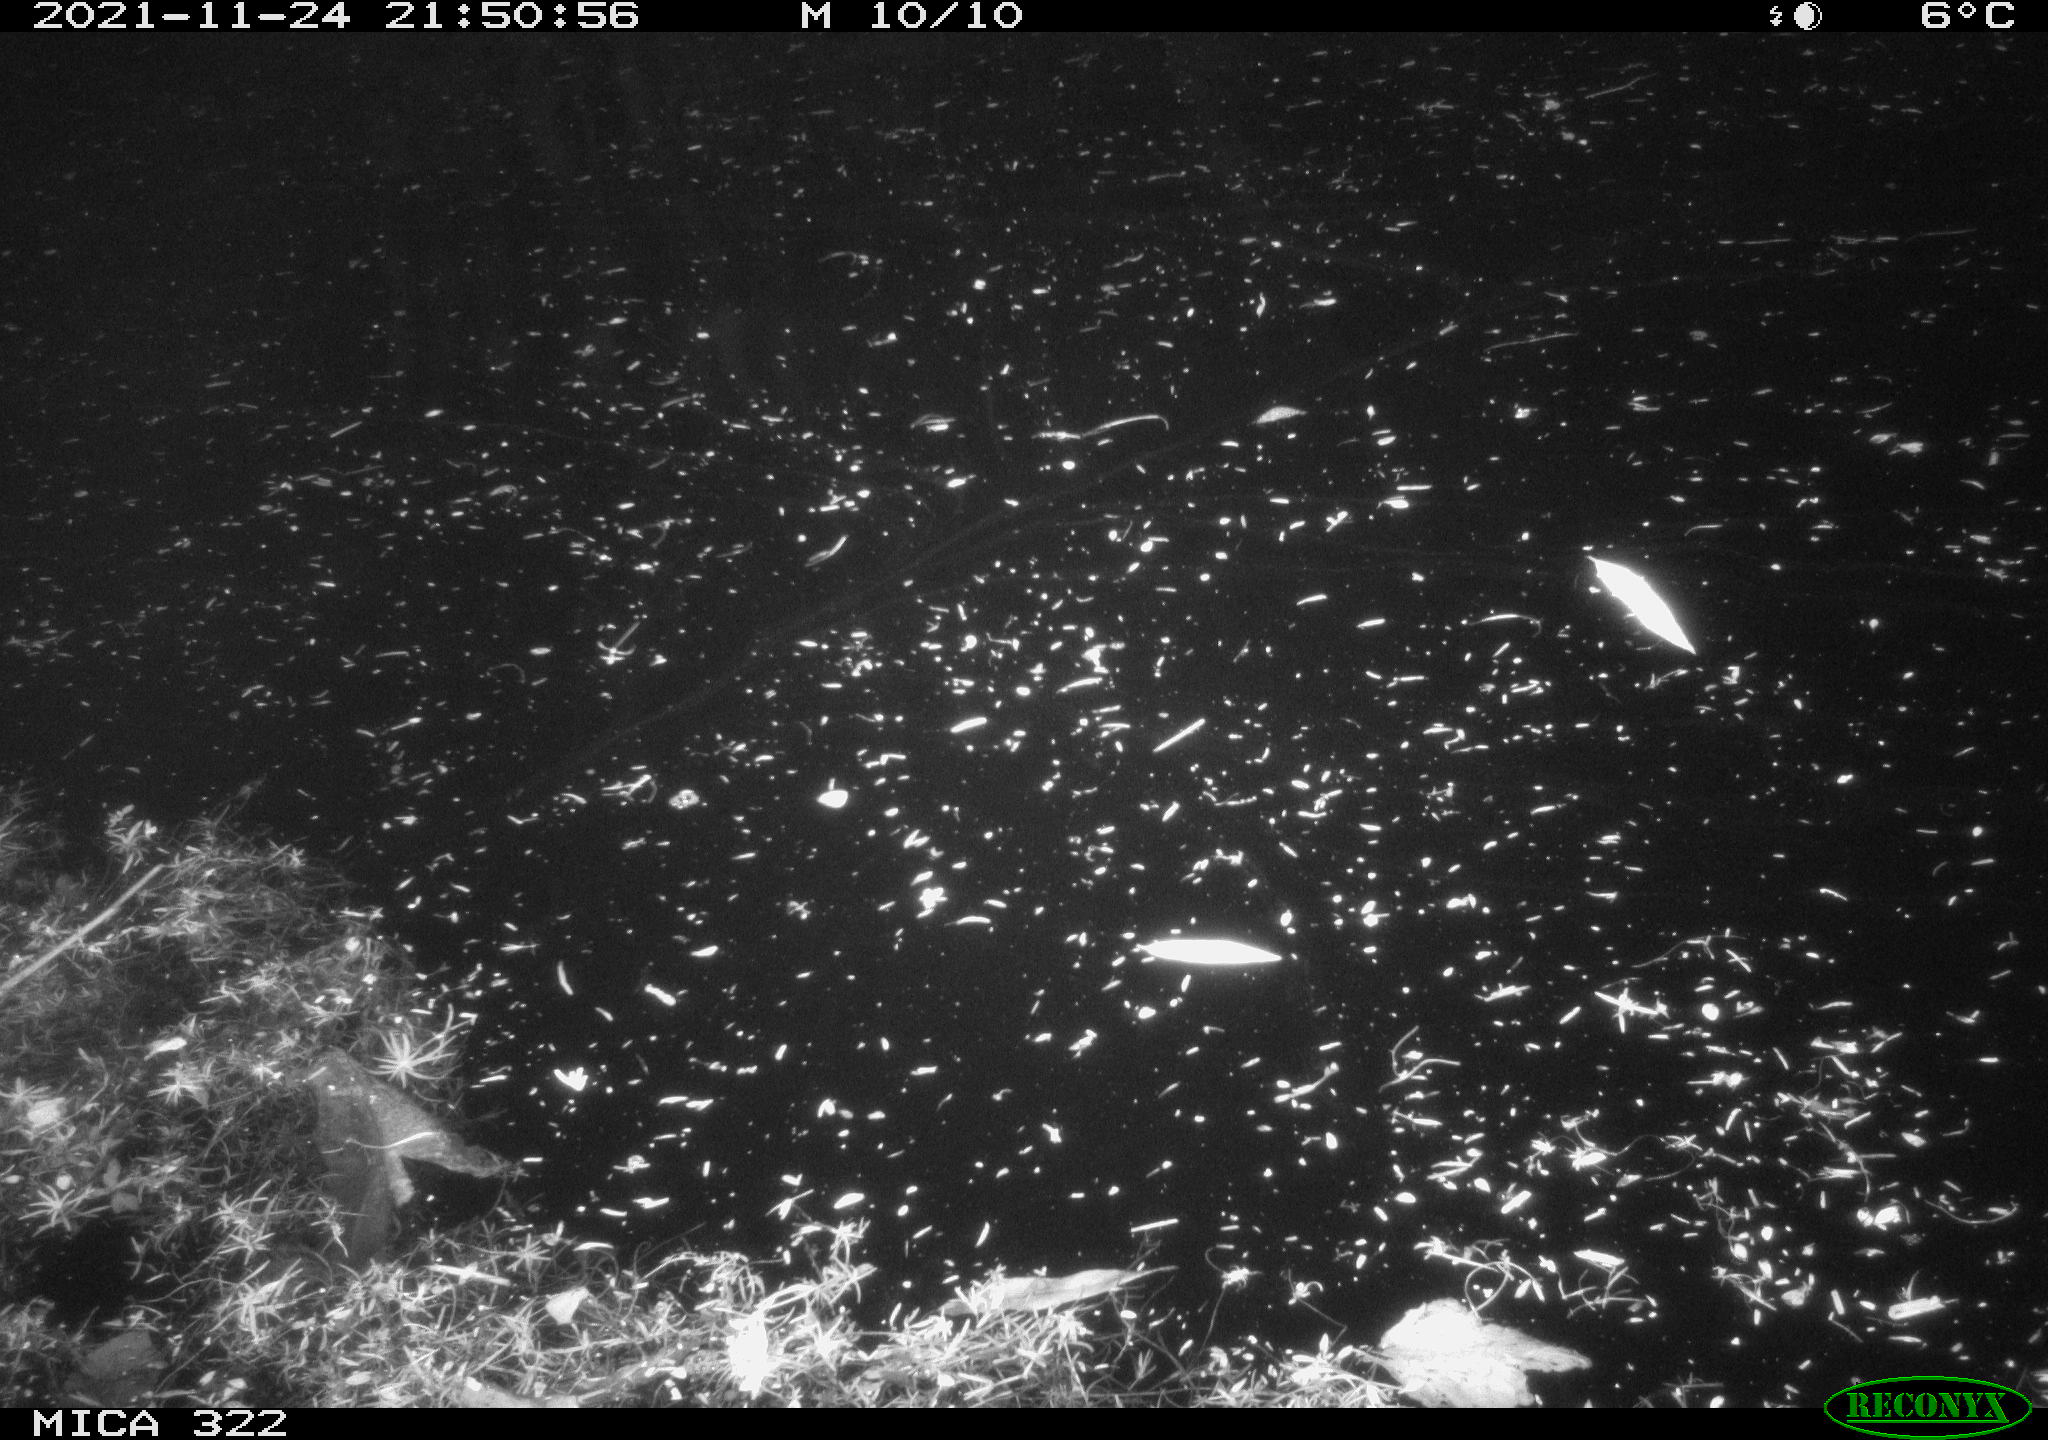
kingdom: Animalia
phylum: Chordata
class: Mammalia
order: Rodentia
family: Muridae
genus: Rattus
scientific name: Rattus norvegicus
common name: Brown rat
